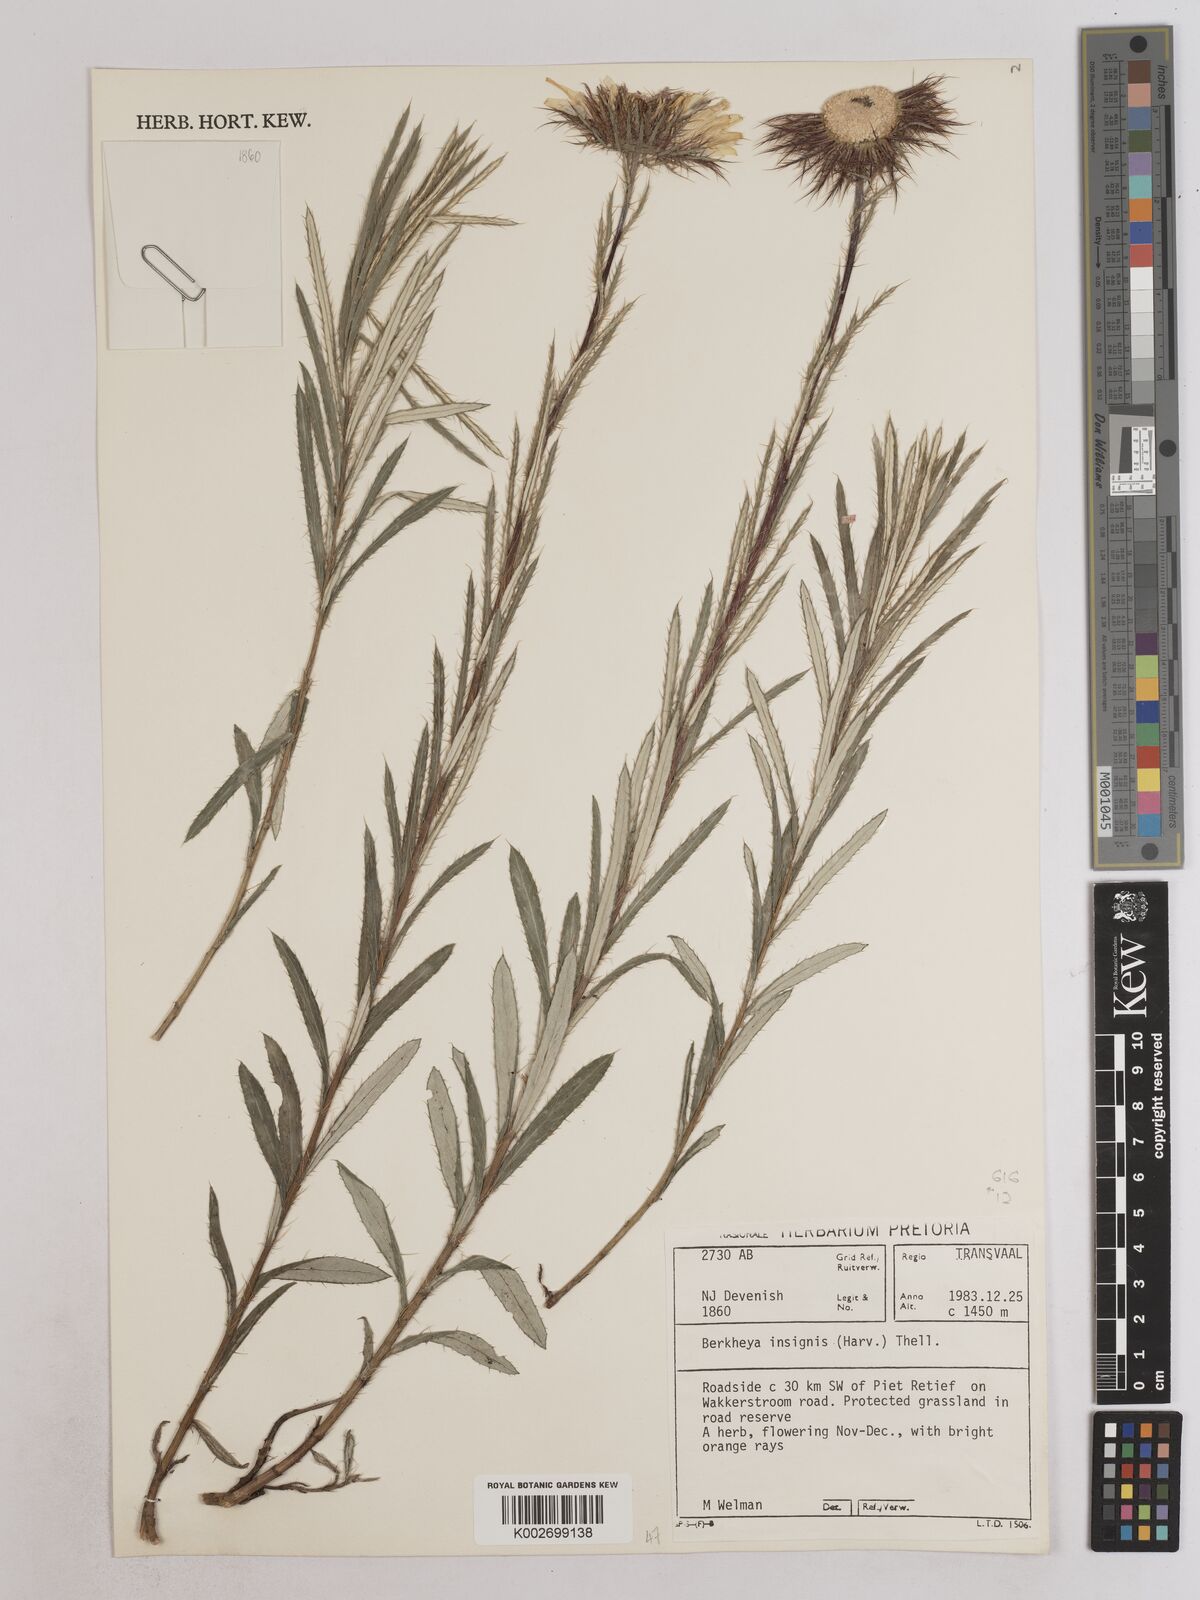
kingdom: Plantae
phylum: Tracheophyta
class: Magnoliopsida
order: Asterales
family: Asteraceae
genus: Berkheya
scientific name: Berkheya insignis
